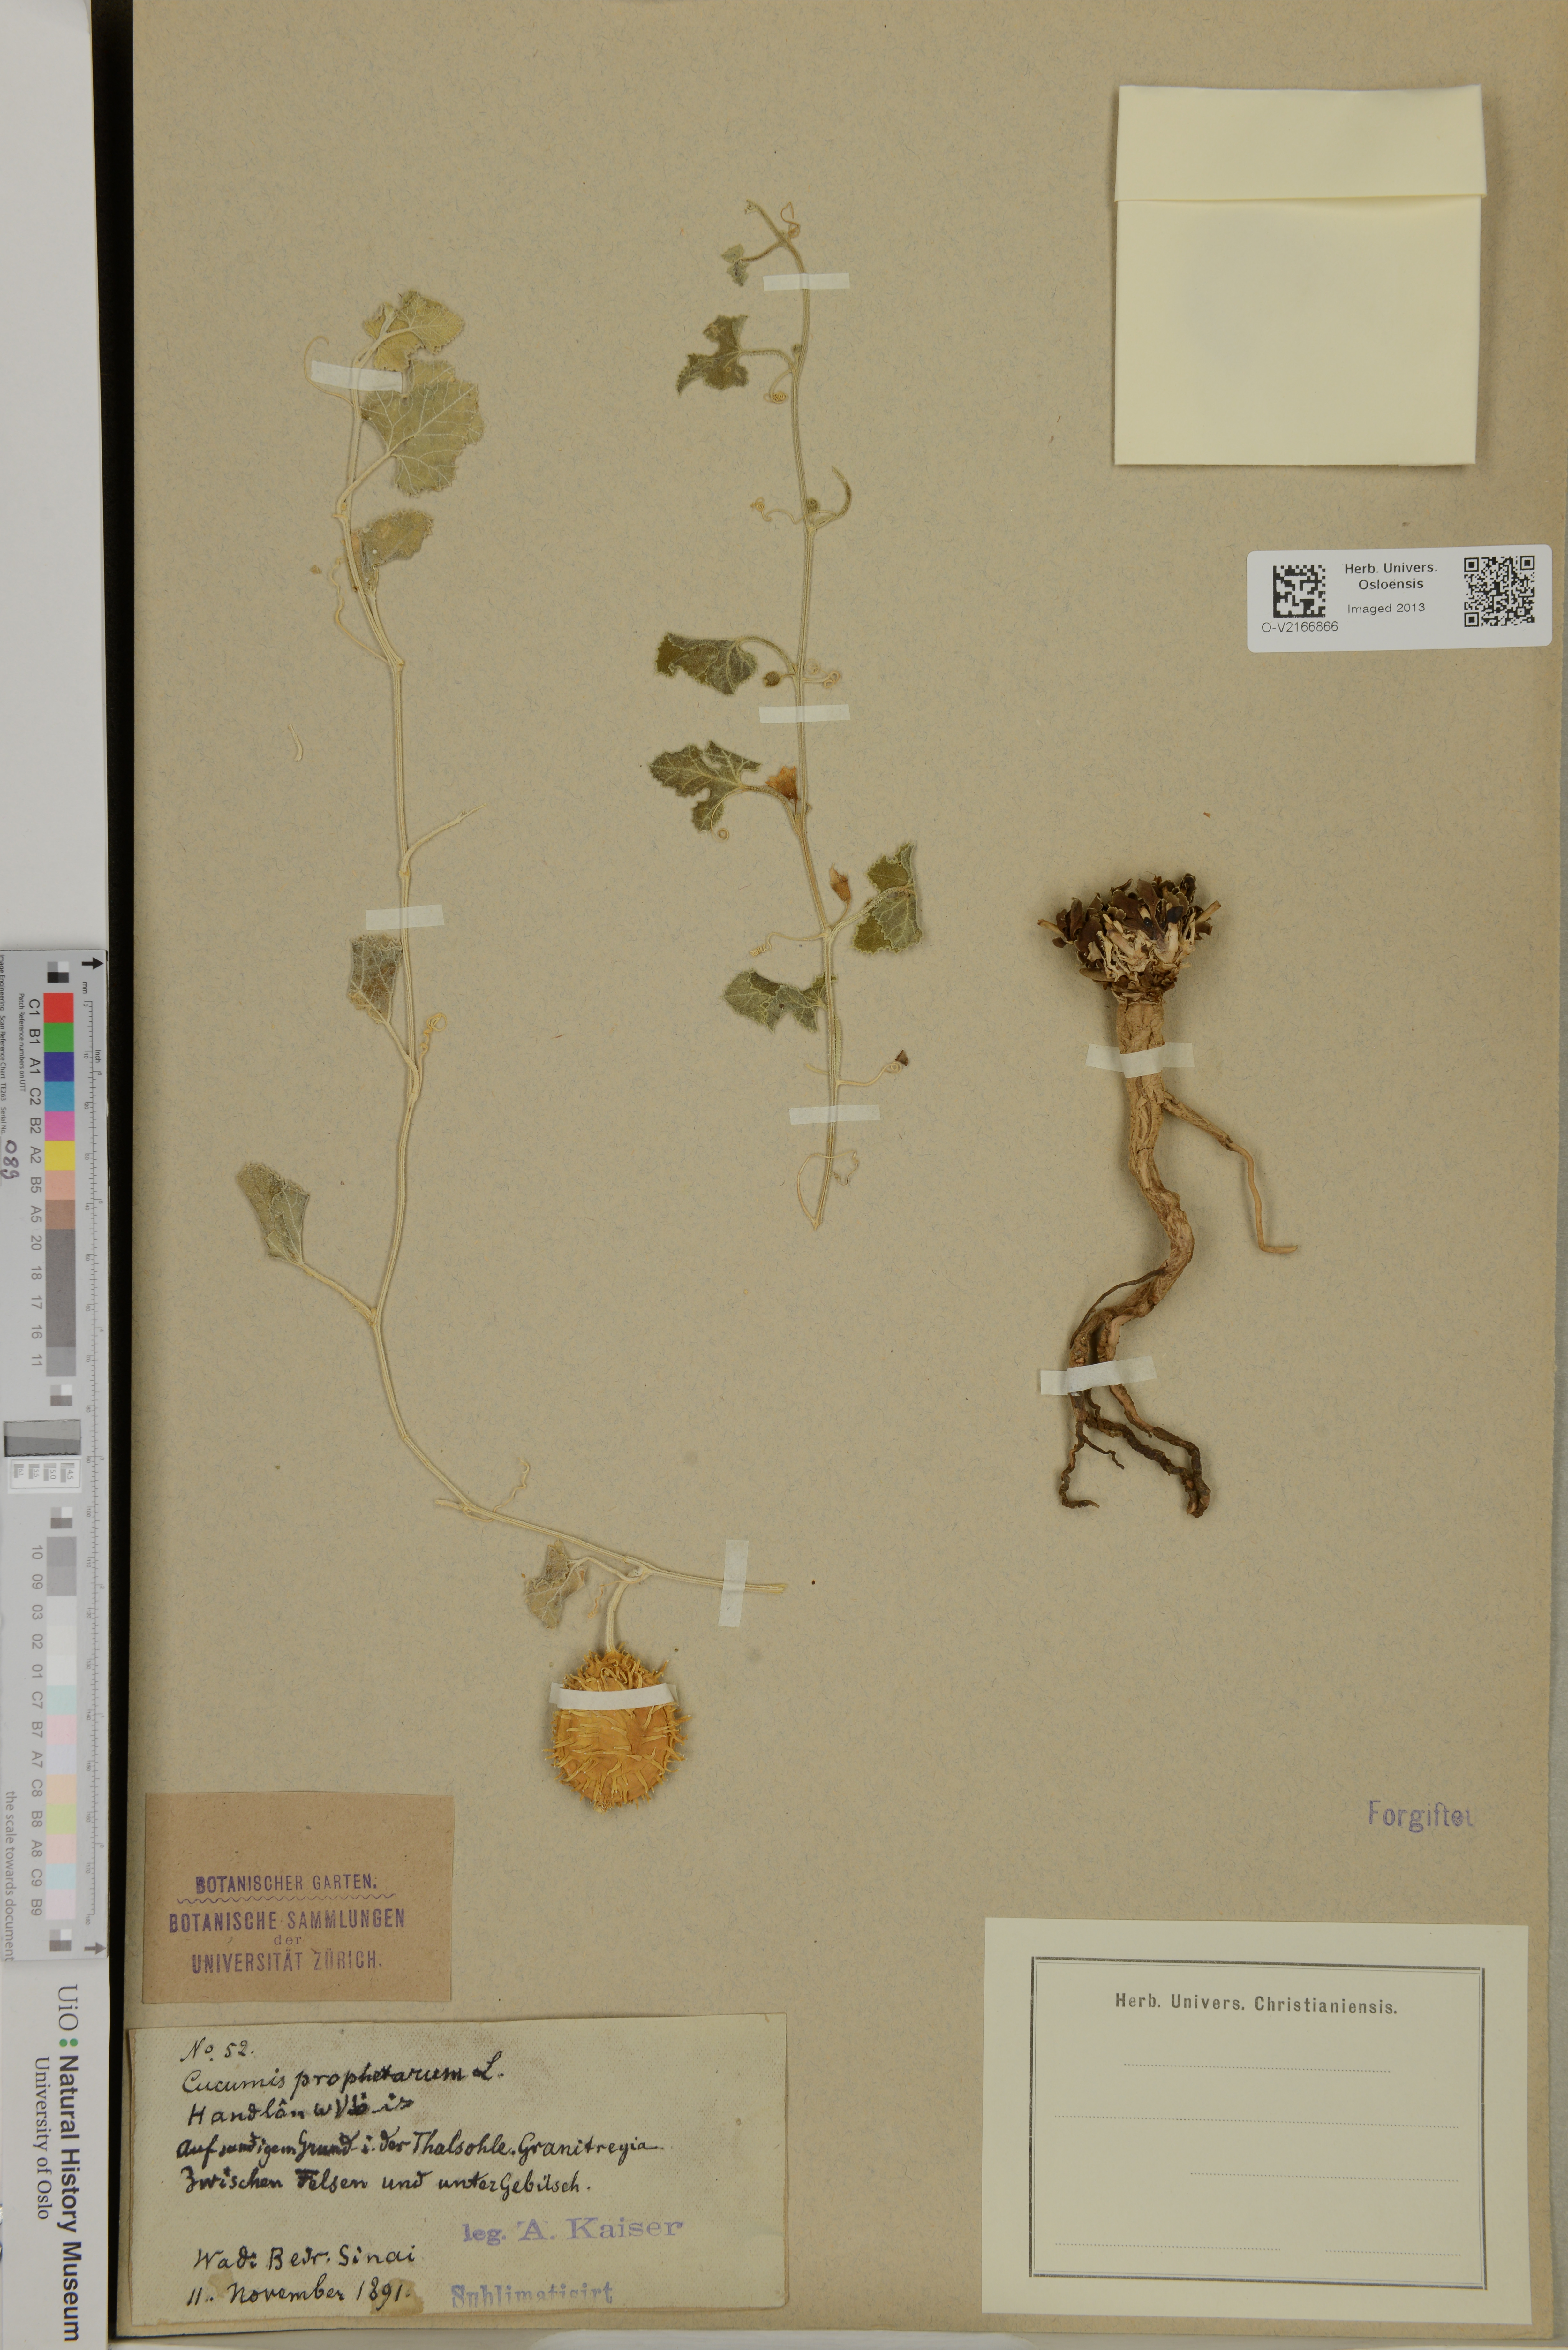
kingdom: Plantae
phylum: Tracheophyta
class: Magnoliopsida
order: Cucurbitales
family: Cucurbitaceae
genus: Cucumis
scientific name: Cucumis prophetarum
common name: Wild cucumber
